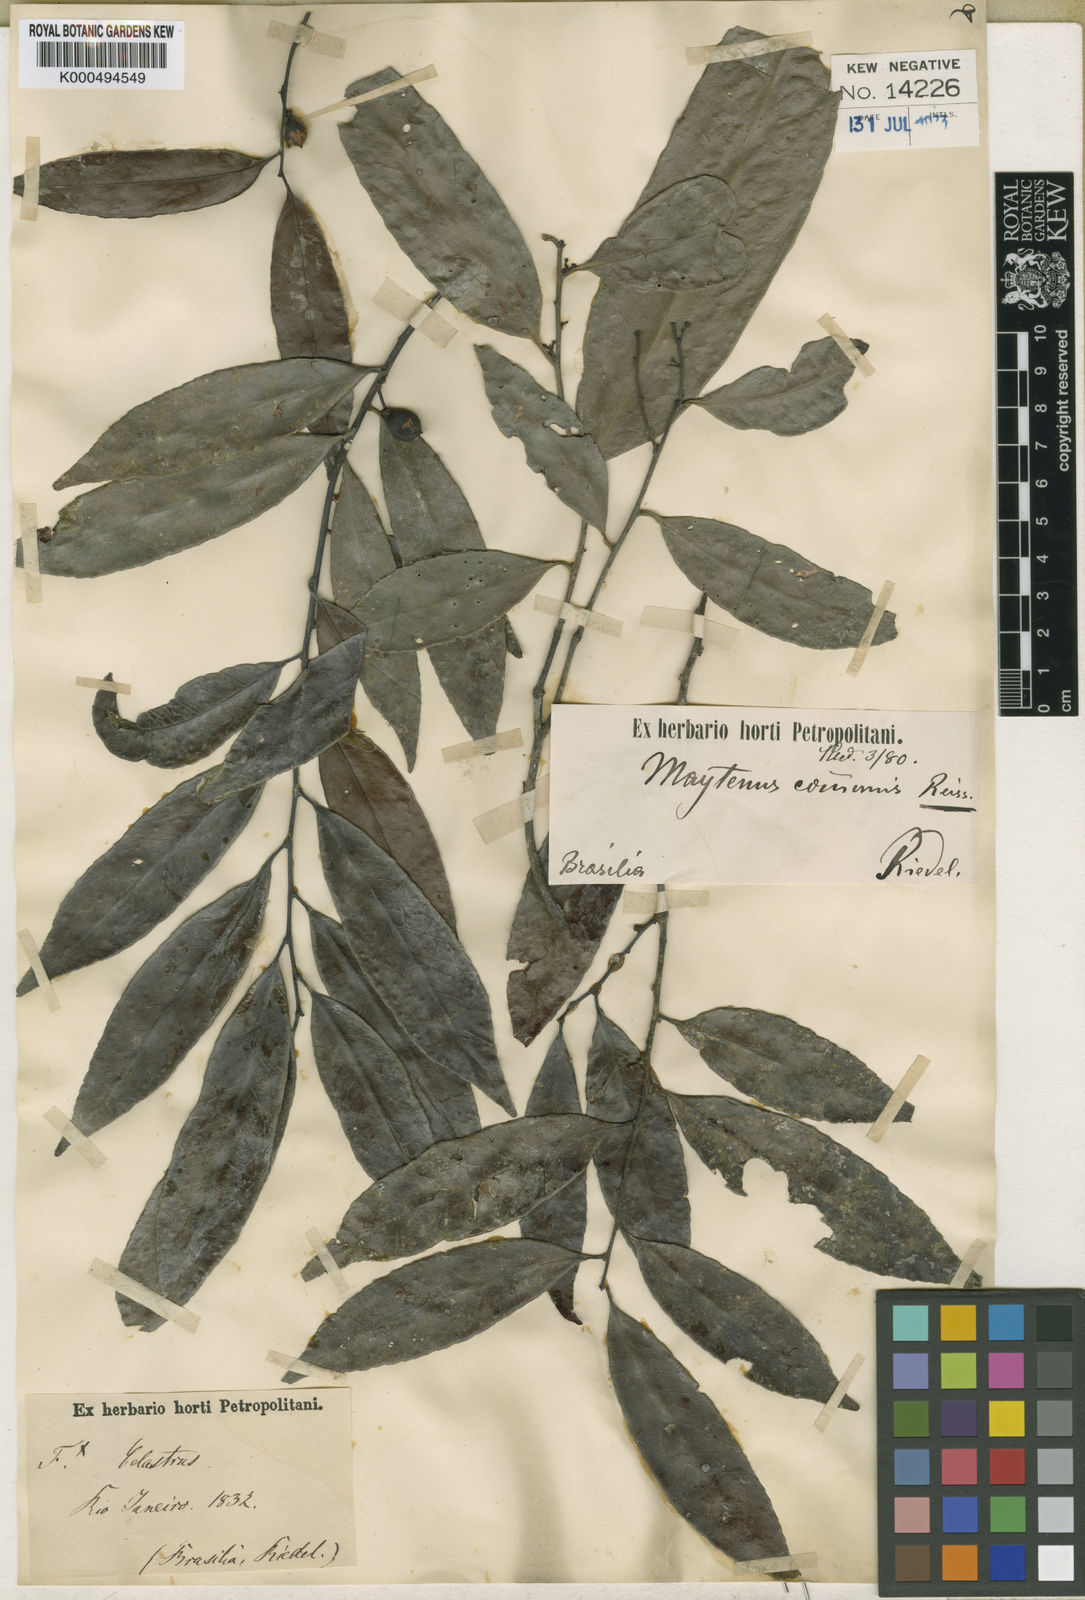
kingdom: Plantae
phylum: Tracheophyta
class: Magnoliopsida
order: Celastrales
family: Celastraceae
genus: Monteverdia
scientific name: Monteverdia communis
